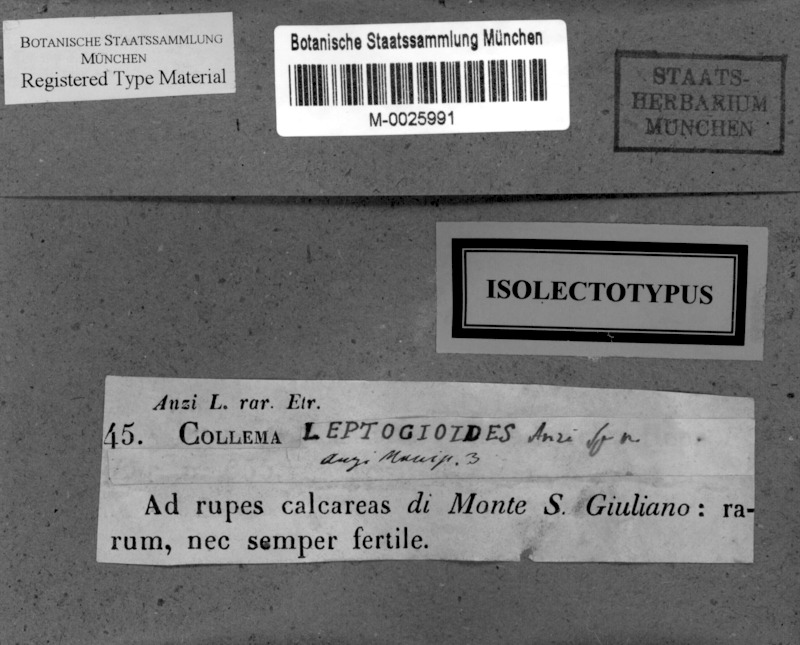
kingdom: Fungi
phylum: Ascomycota
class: Lecanoromycetes
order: Peltigerales
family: Collemataceae
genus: Scytinium
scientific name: Scytinium leptogioides
